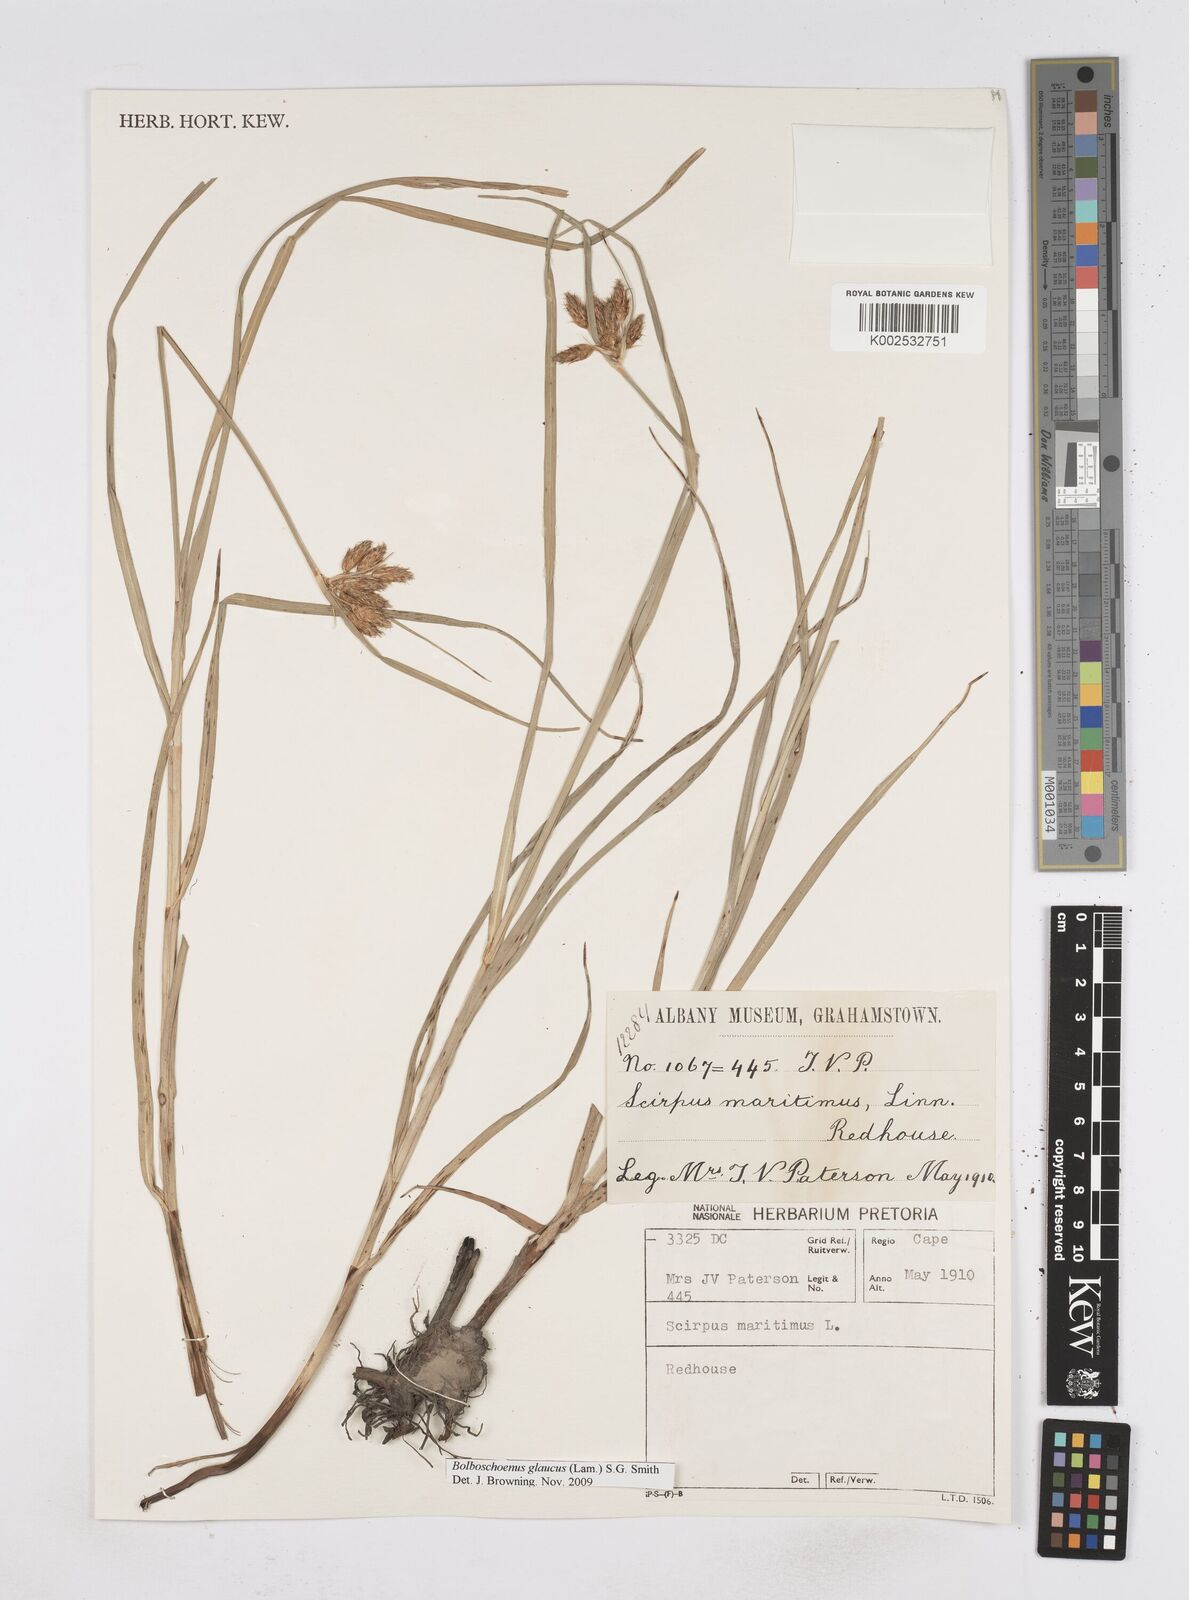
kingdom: Plantae
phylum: Tracheophyta
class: Liliopsida
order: Poales
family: Cyperaceae
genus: Bolboschoenus
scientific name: Bolboschoenus maritimus
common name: Sea club-rush
